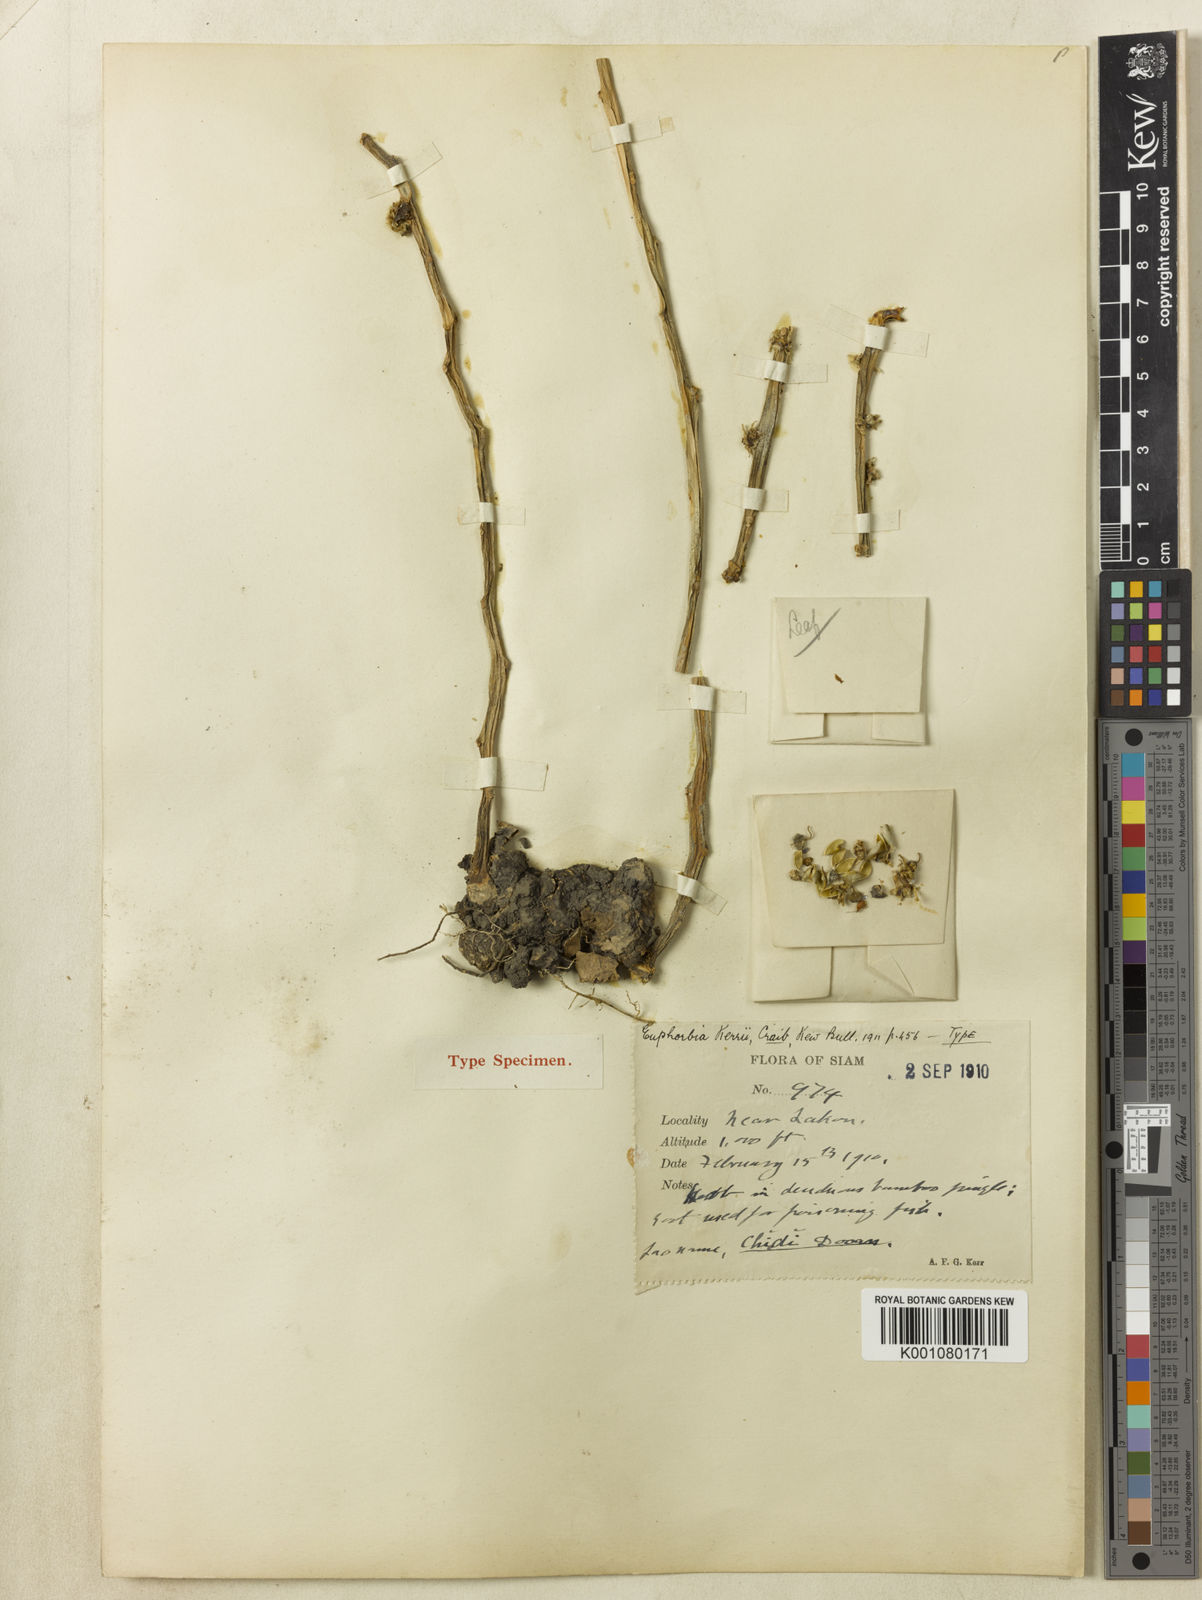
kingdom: Plantae
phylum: Tracheophyta
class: Magnoliopsida
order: Malpighiales
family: Euphorbiaceae
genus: Euphorbia
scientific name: Euphorbia sessiliflora
